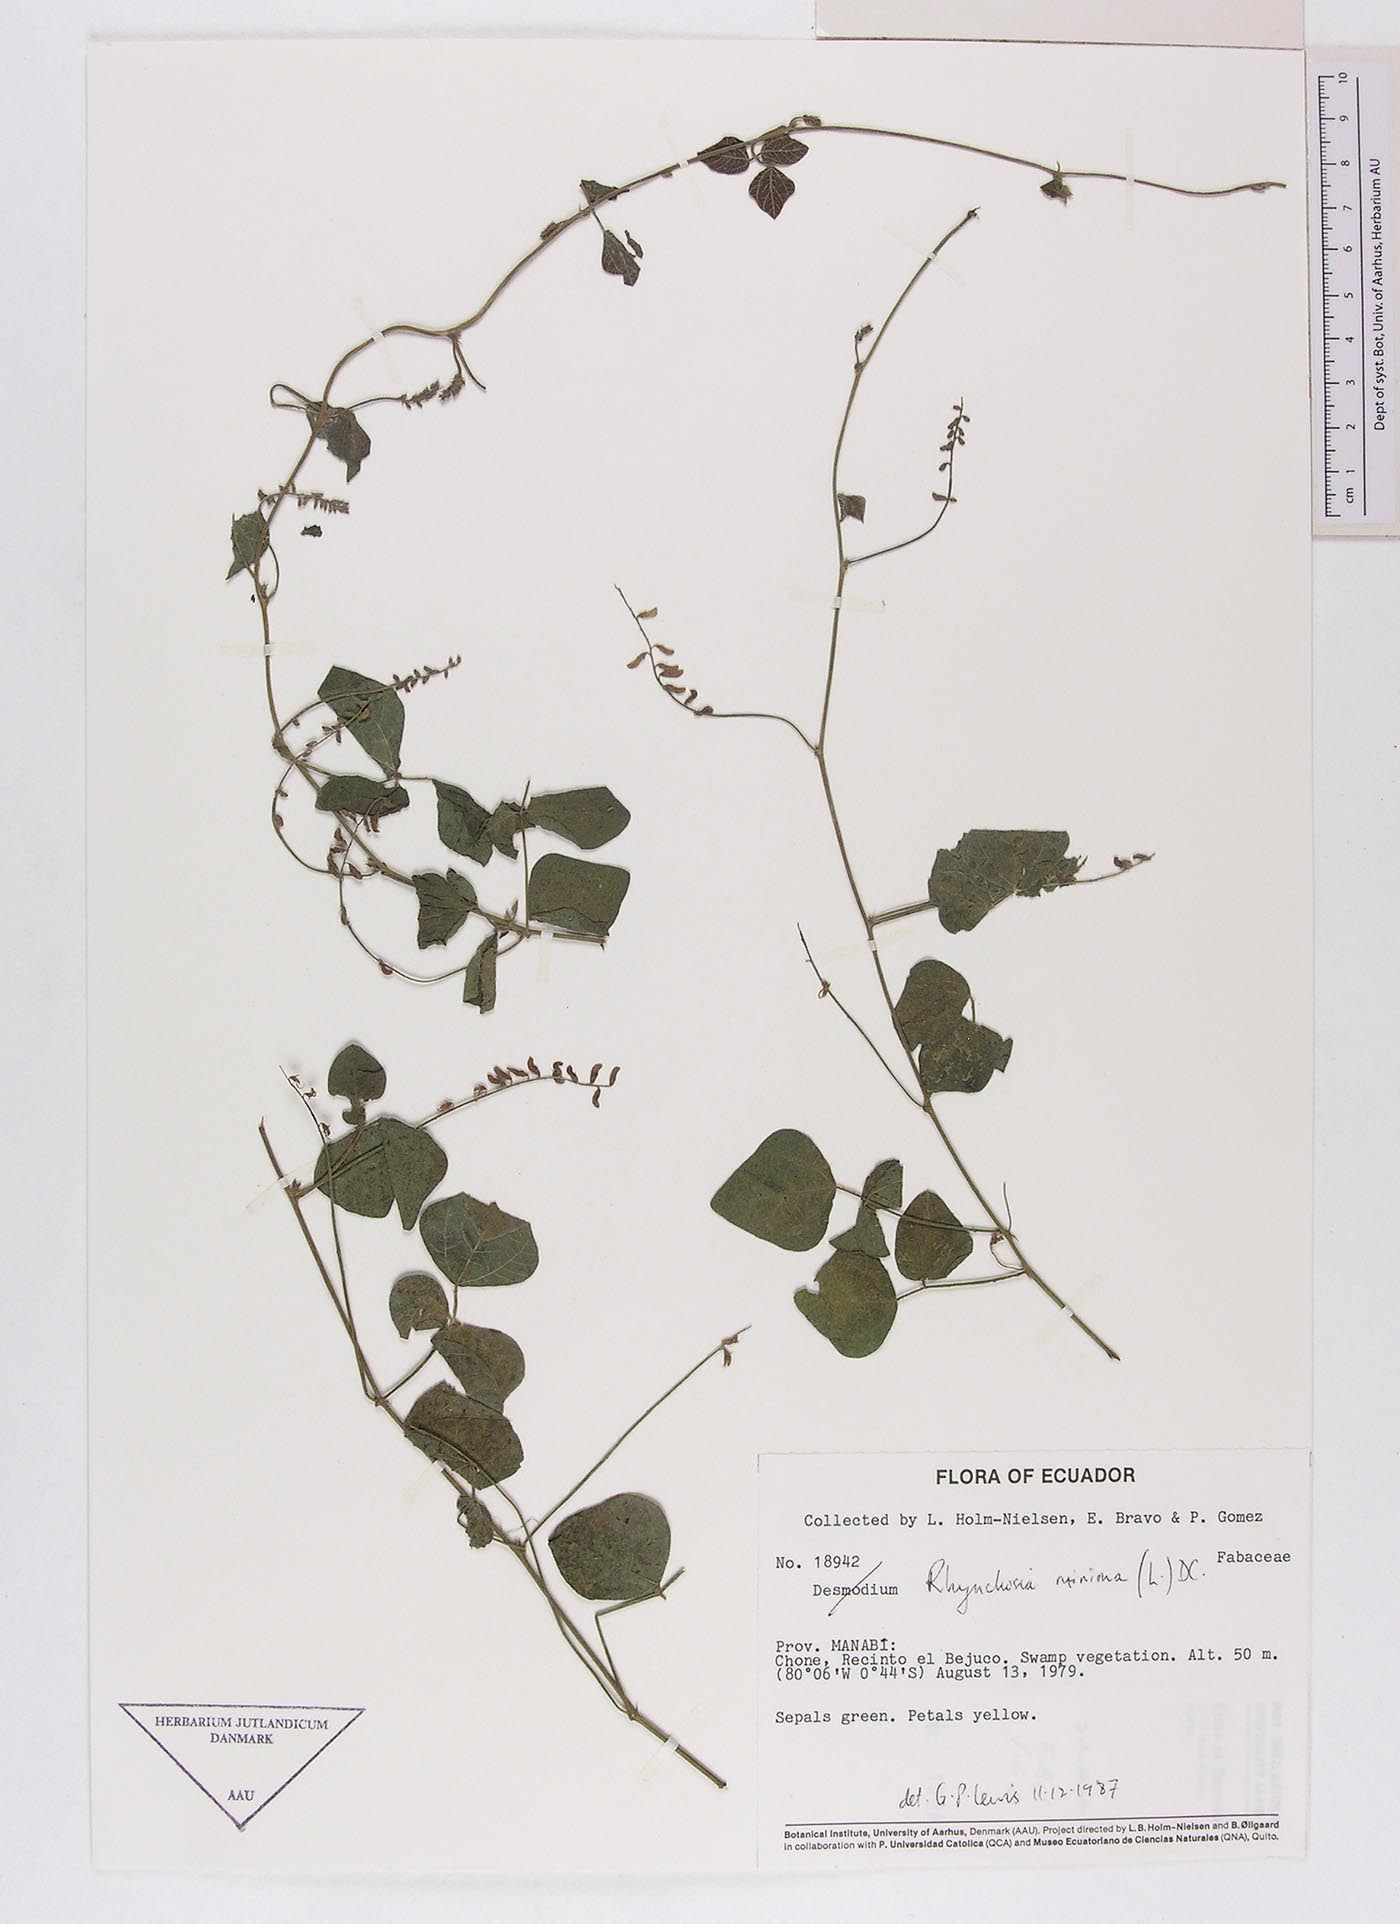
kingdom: Plantae
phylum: Tracheophyta
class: Magnoliopsida
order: Fabales
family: Fabaceae
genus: Rhynchosia
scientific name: Rhynchosia minima
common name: Least snoutbean
